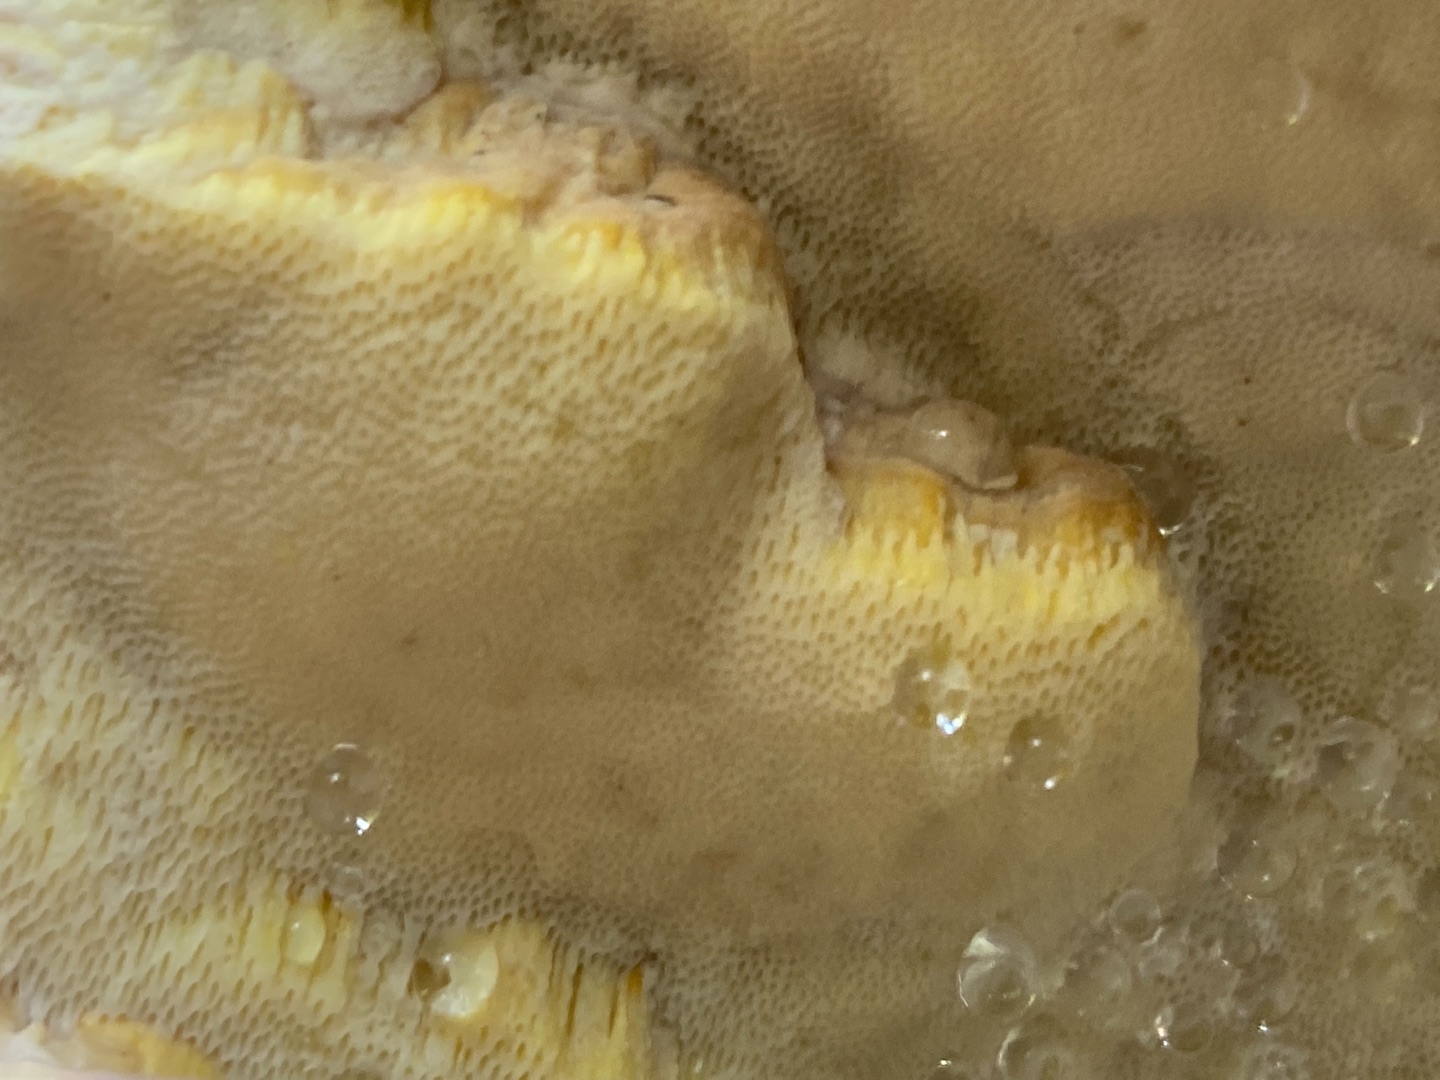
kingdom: Fungi
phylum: Basidiomycota
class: Agaricomycetes
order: Polyporales
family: Fomitopsidaceae
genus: Fomitopsis
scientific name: Fomitopsis pinicola
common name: Randbæltet hovporesvamp
